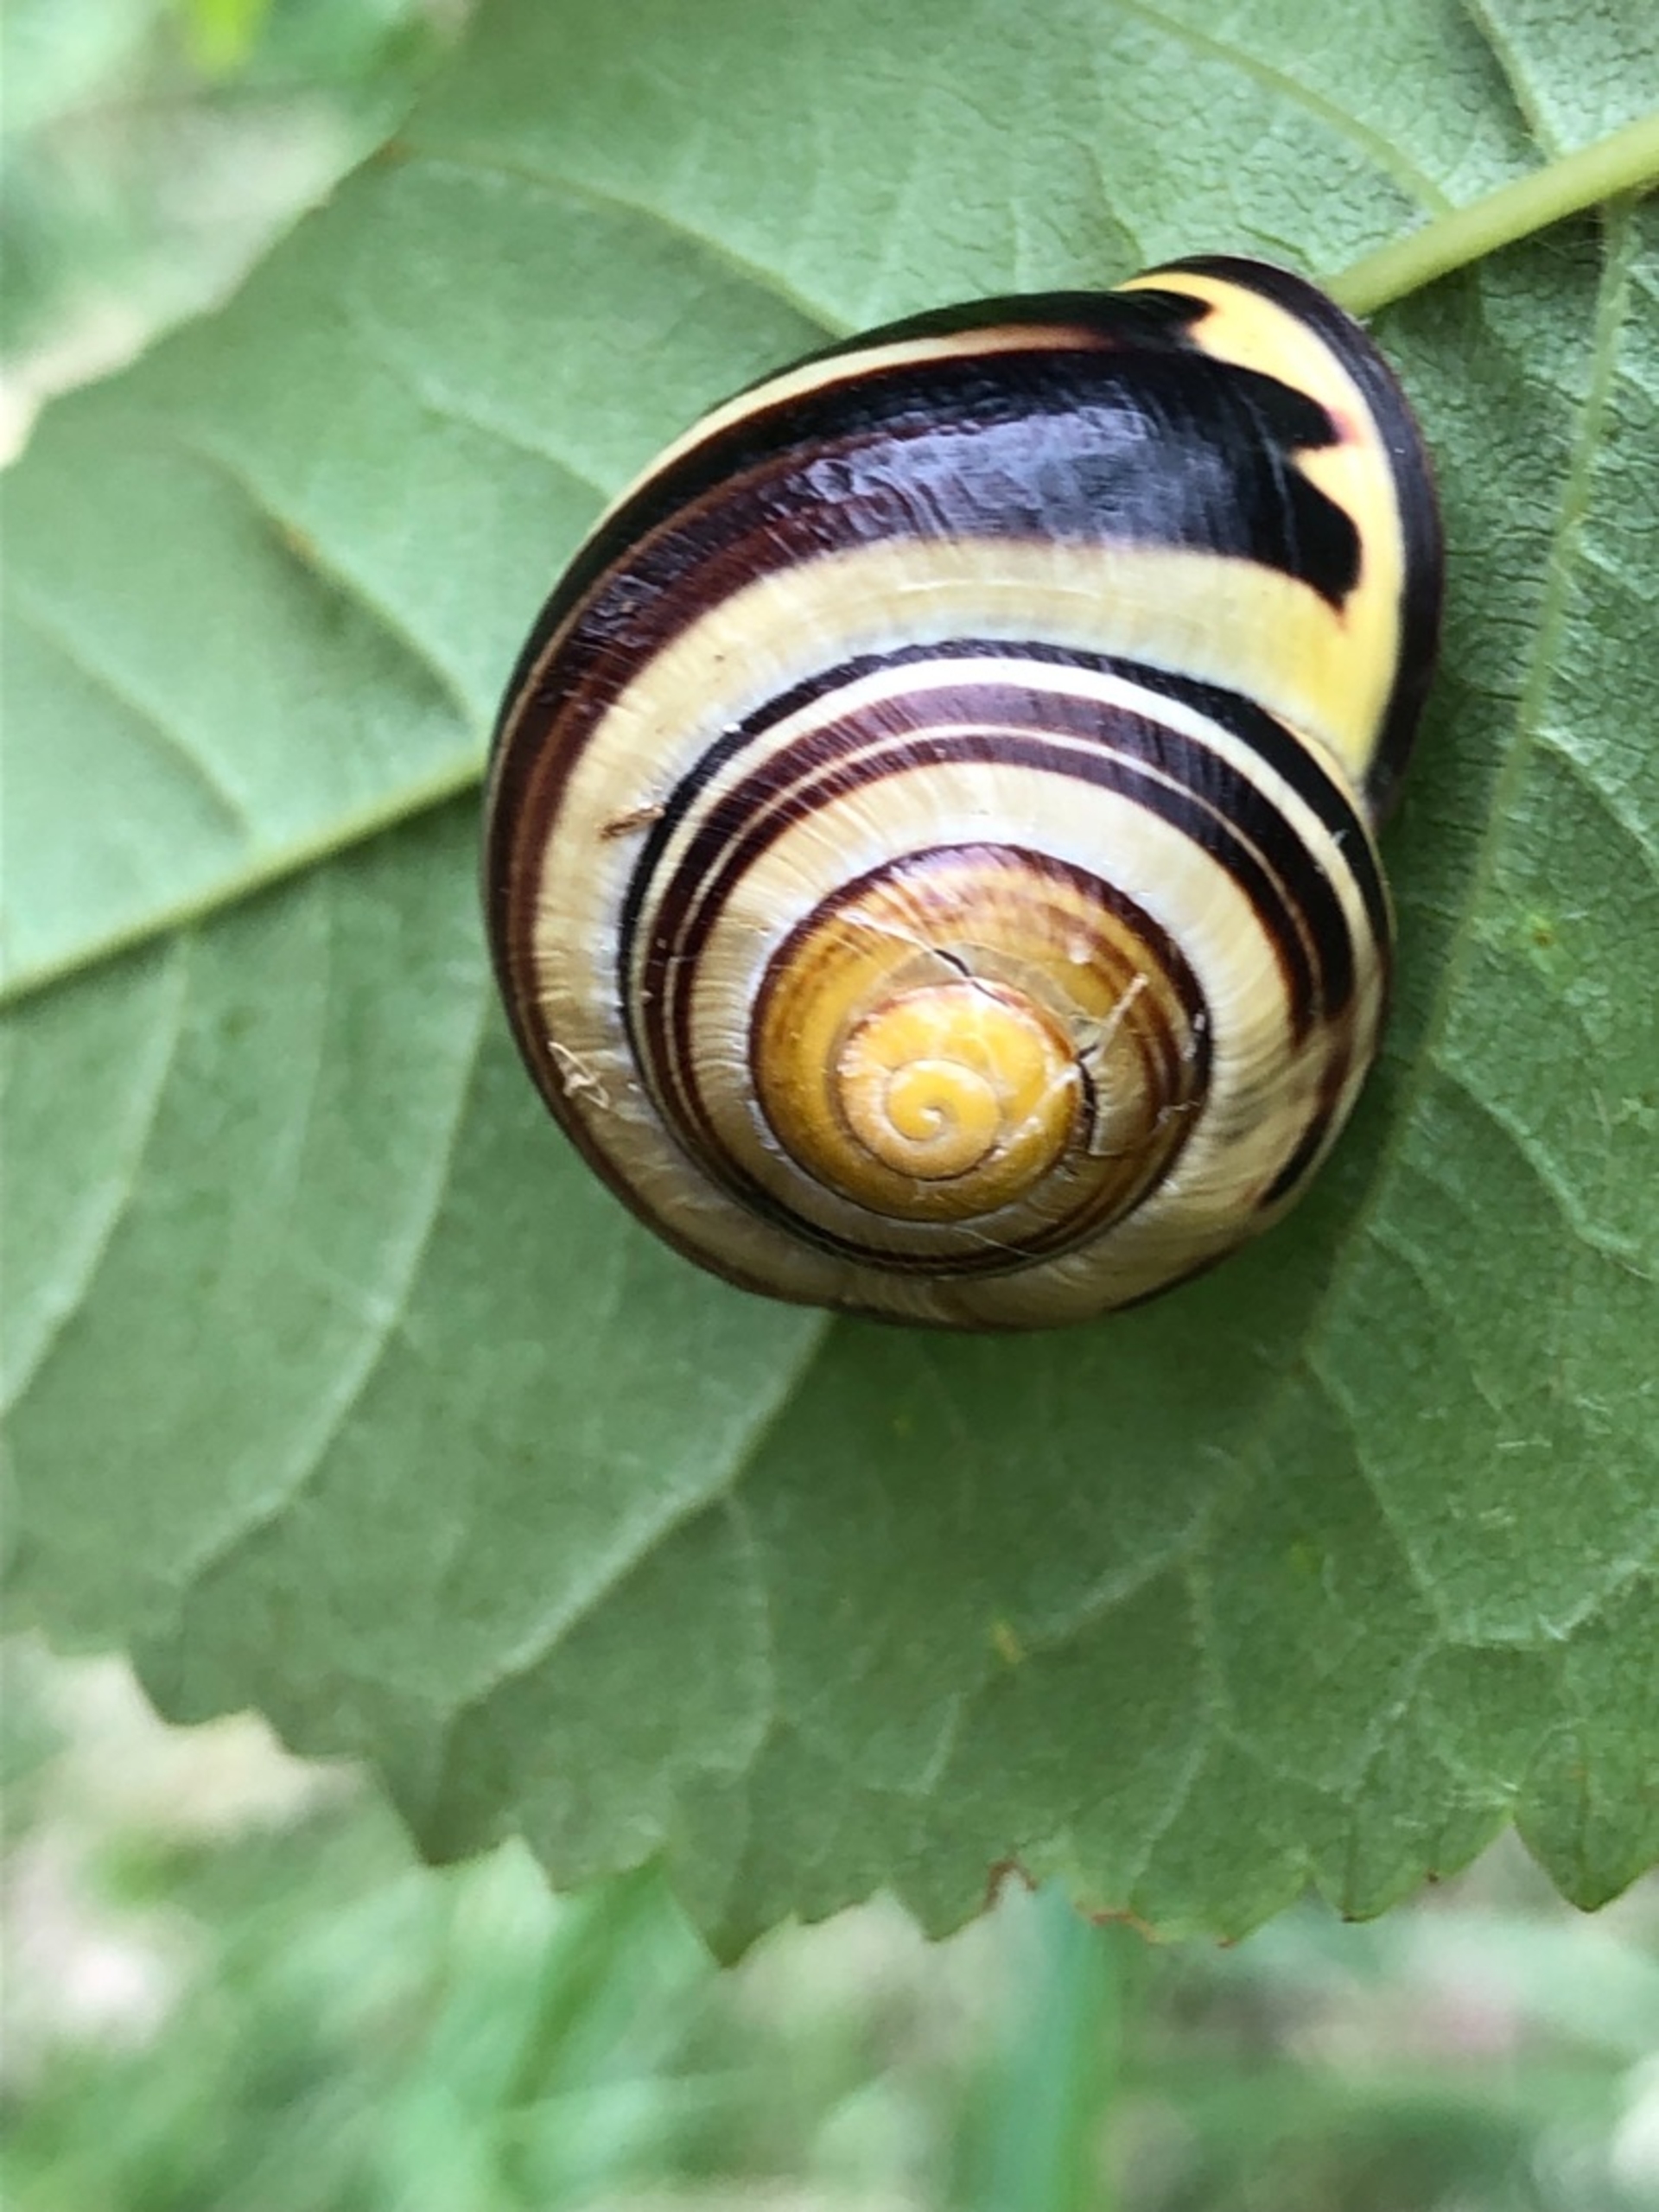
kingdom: Animalia
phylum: Mollusca
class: Gastropoda
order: Stylommatophora
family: Helicidae
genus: Cepaea
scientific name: Cepaea nemoralis
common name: Lundsnegl
